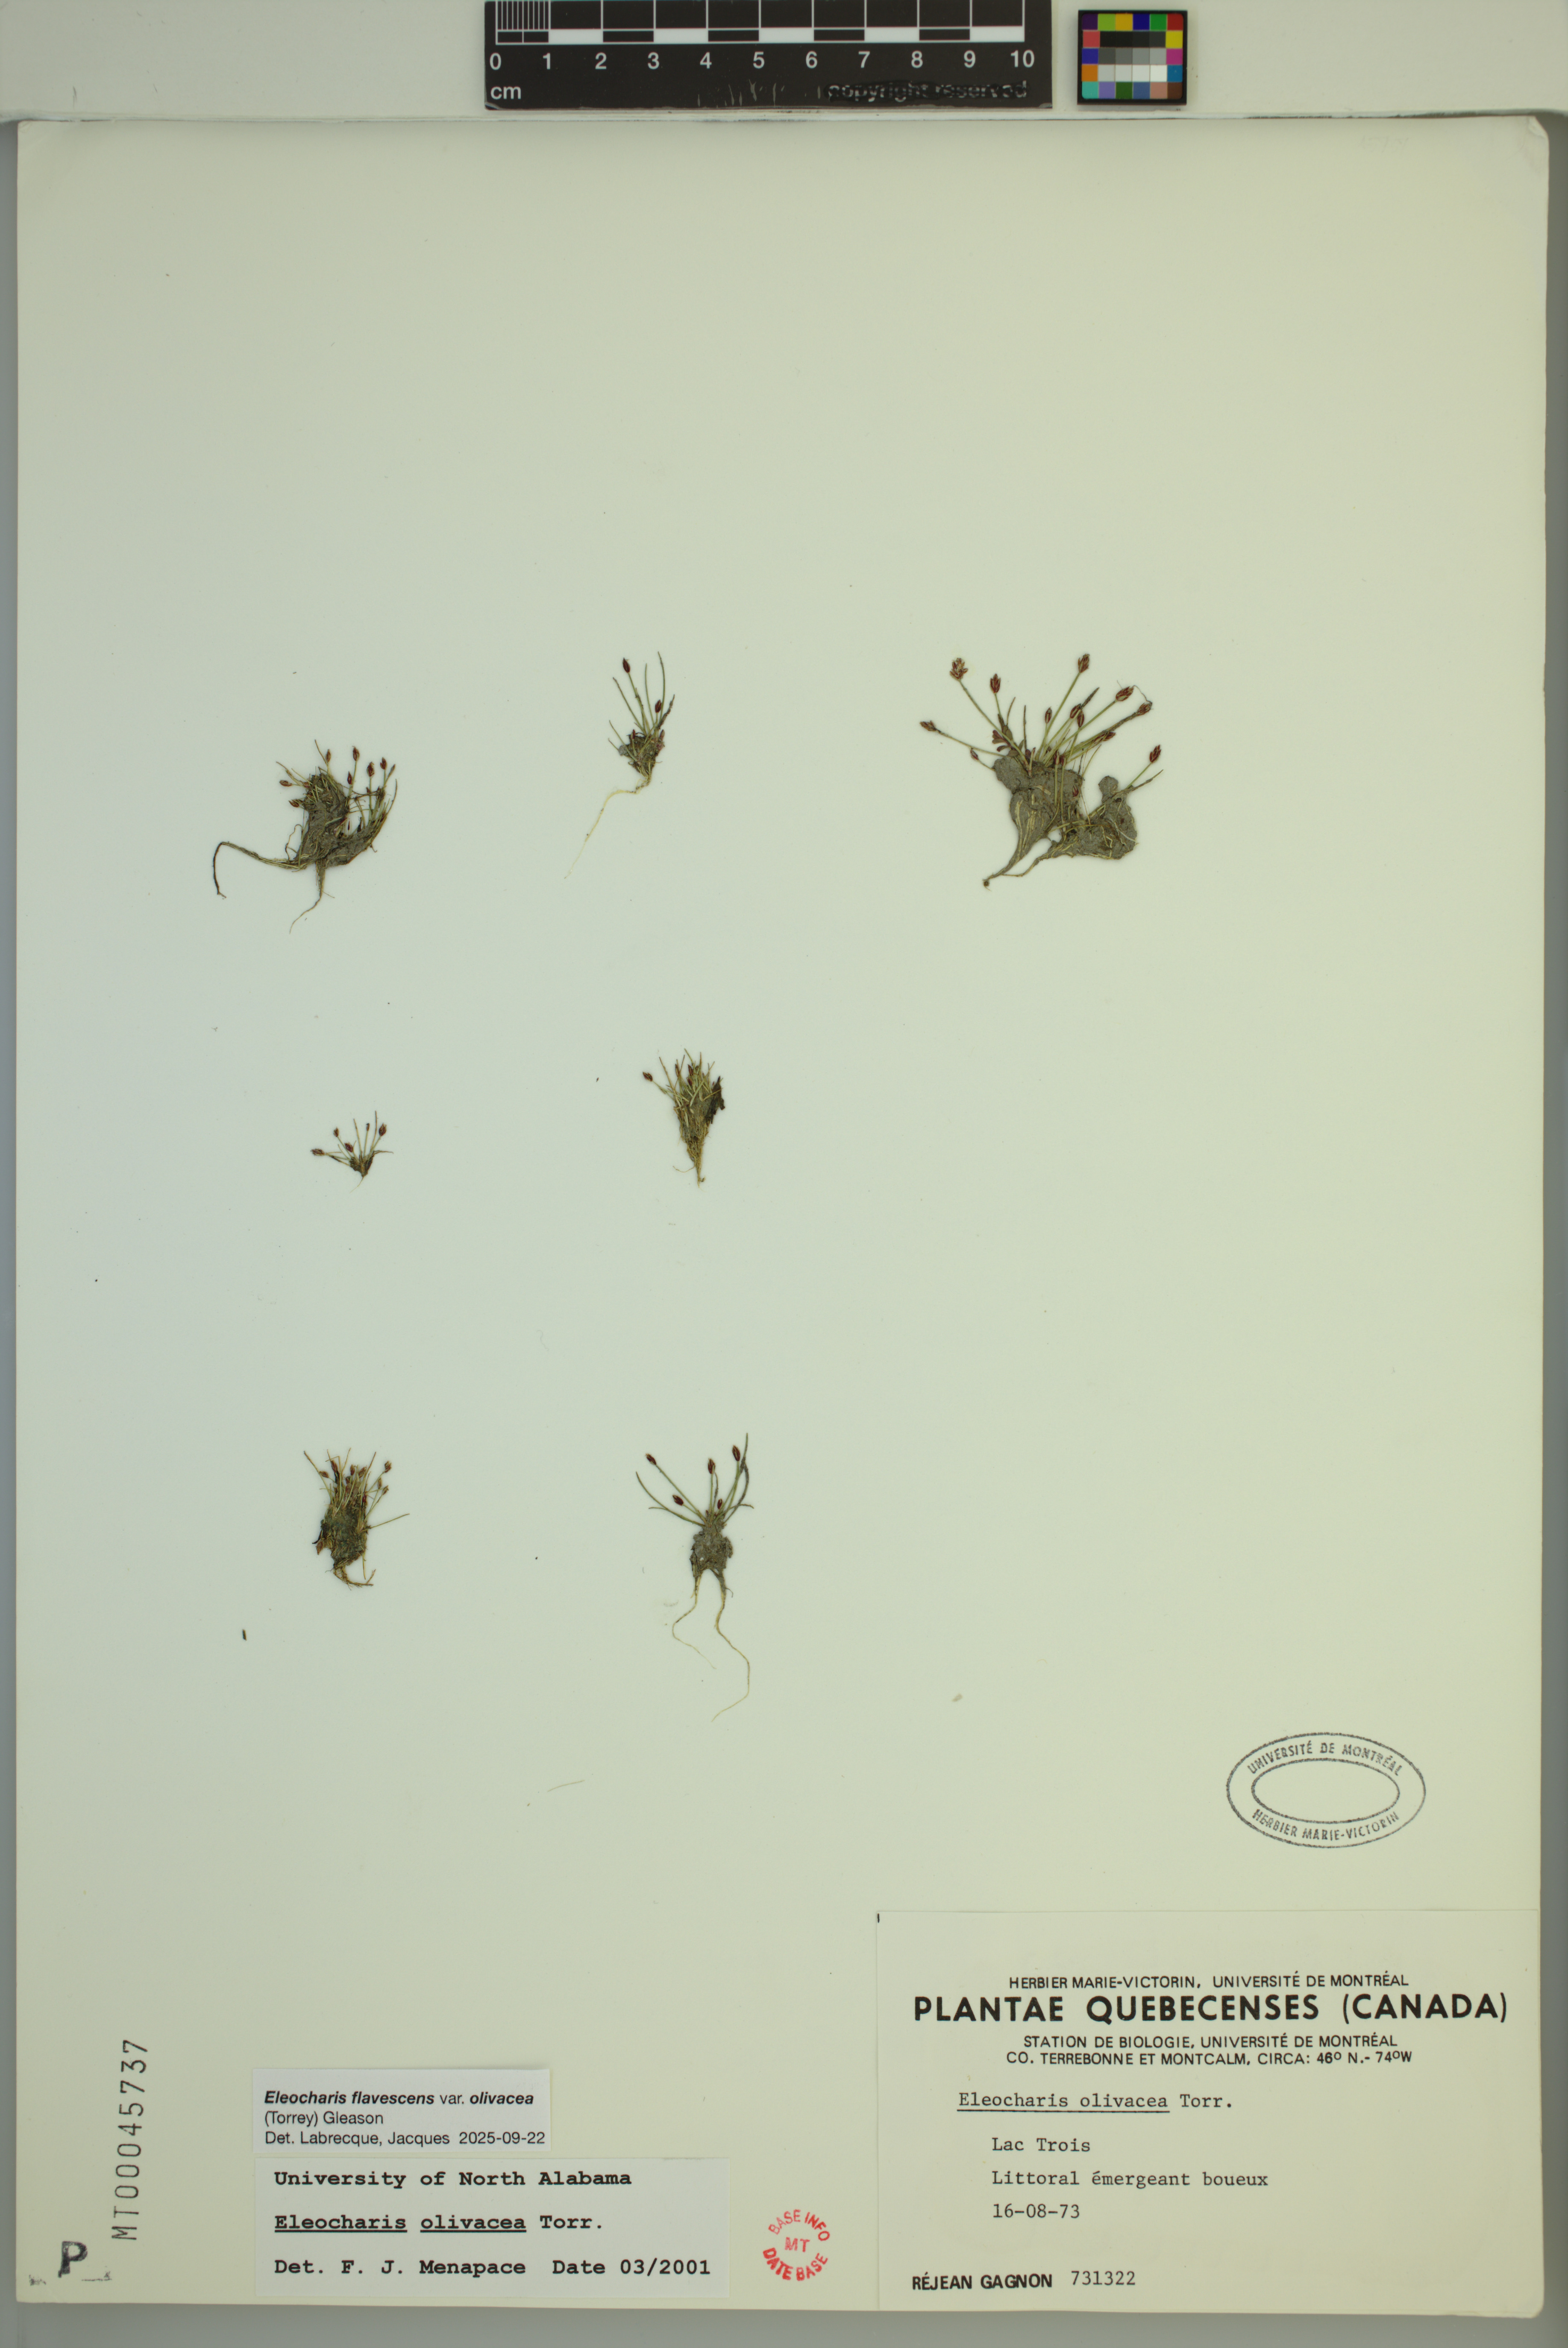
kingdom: Plantae
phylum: Tracheophyta
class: Liliopsida
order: Poales
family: Cyperaceae
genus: Eleocharis
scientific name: Eleocharis flavescens
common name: Yellow spikerush
